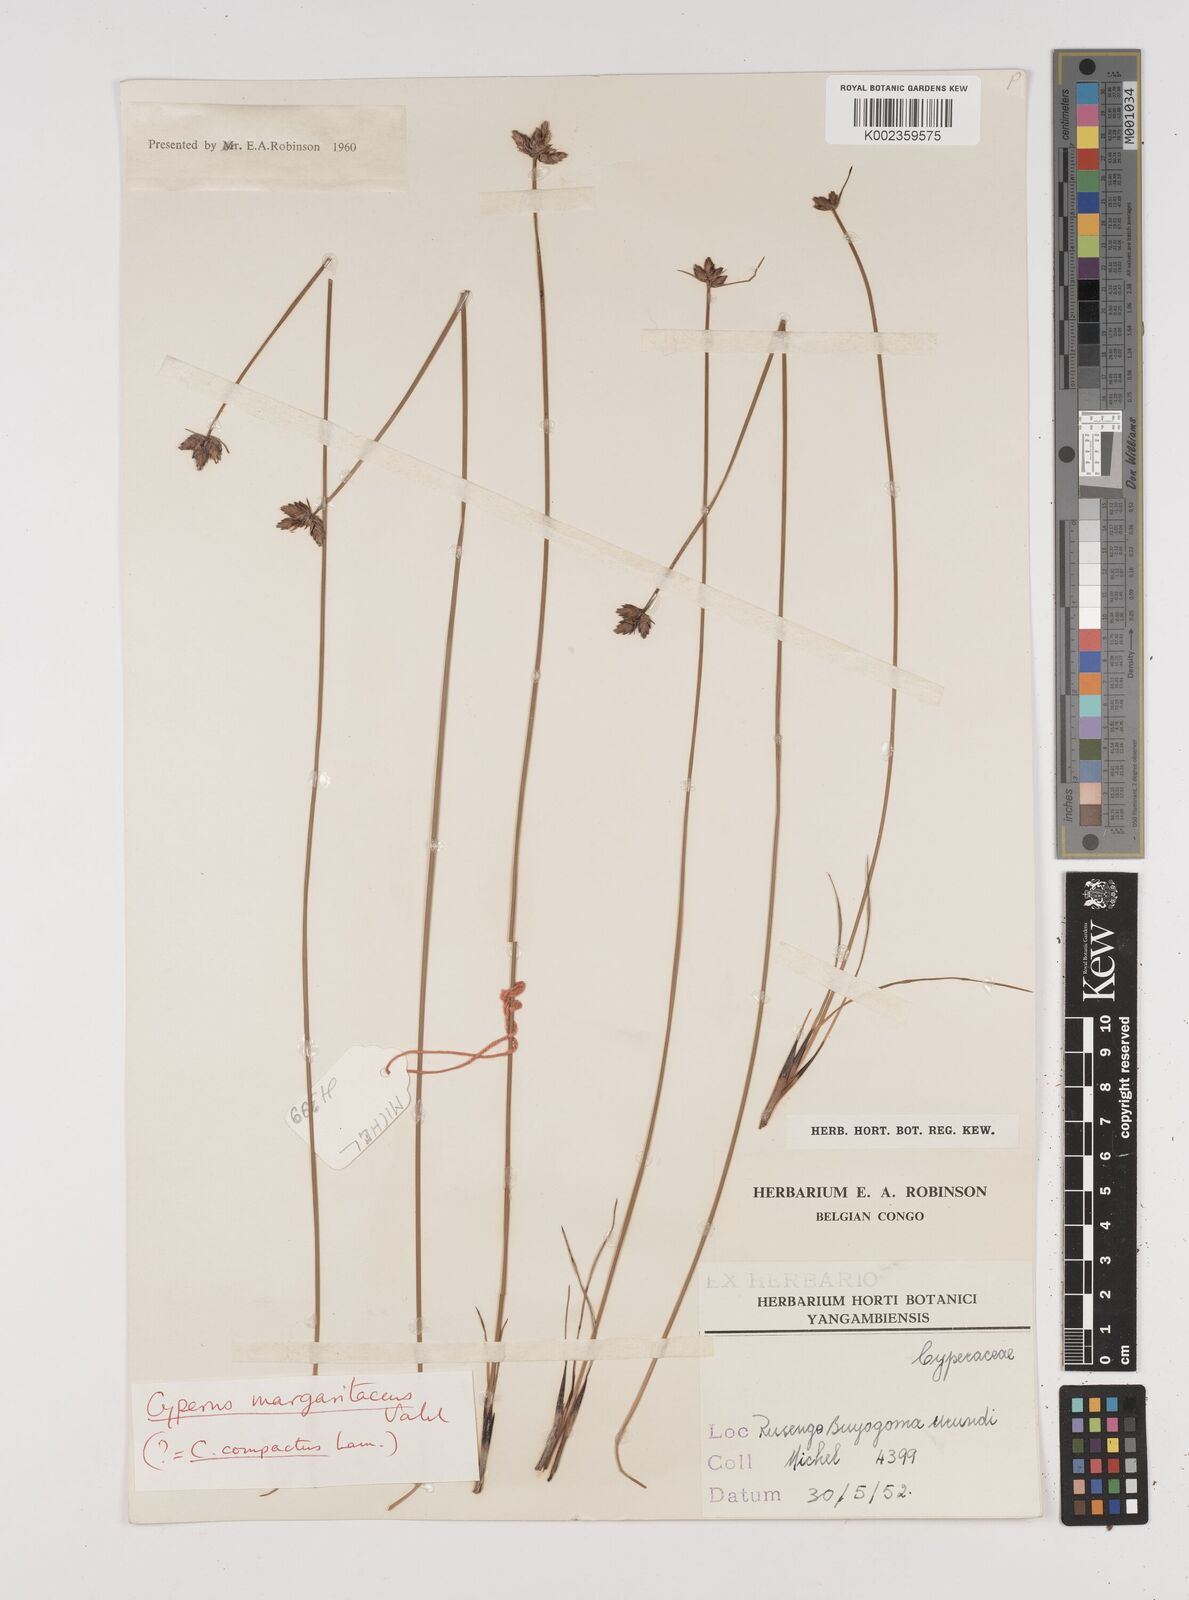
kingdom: Plantae
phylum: Tracheophyta
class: Liliopsida
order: Poales
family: Cyperaceae
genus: Cyperus
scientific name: Cyperus nduru
